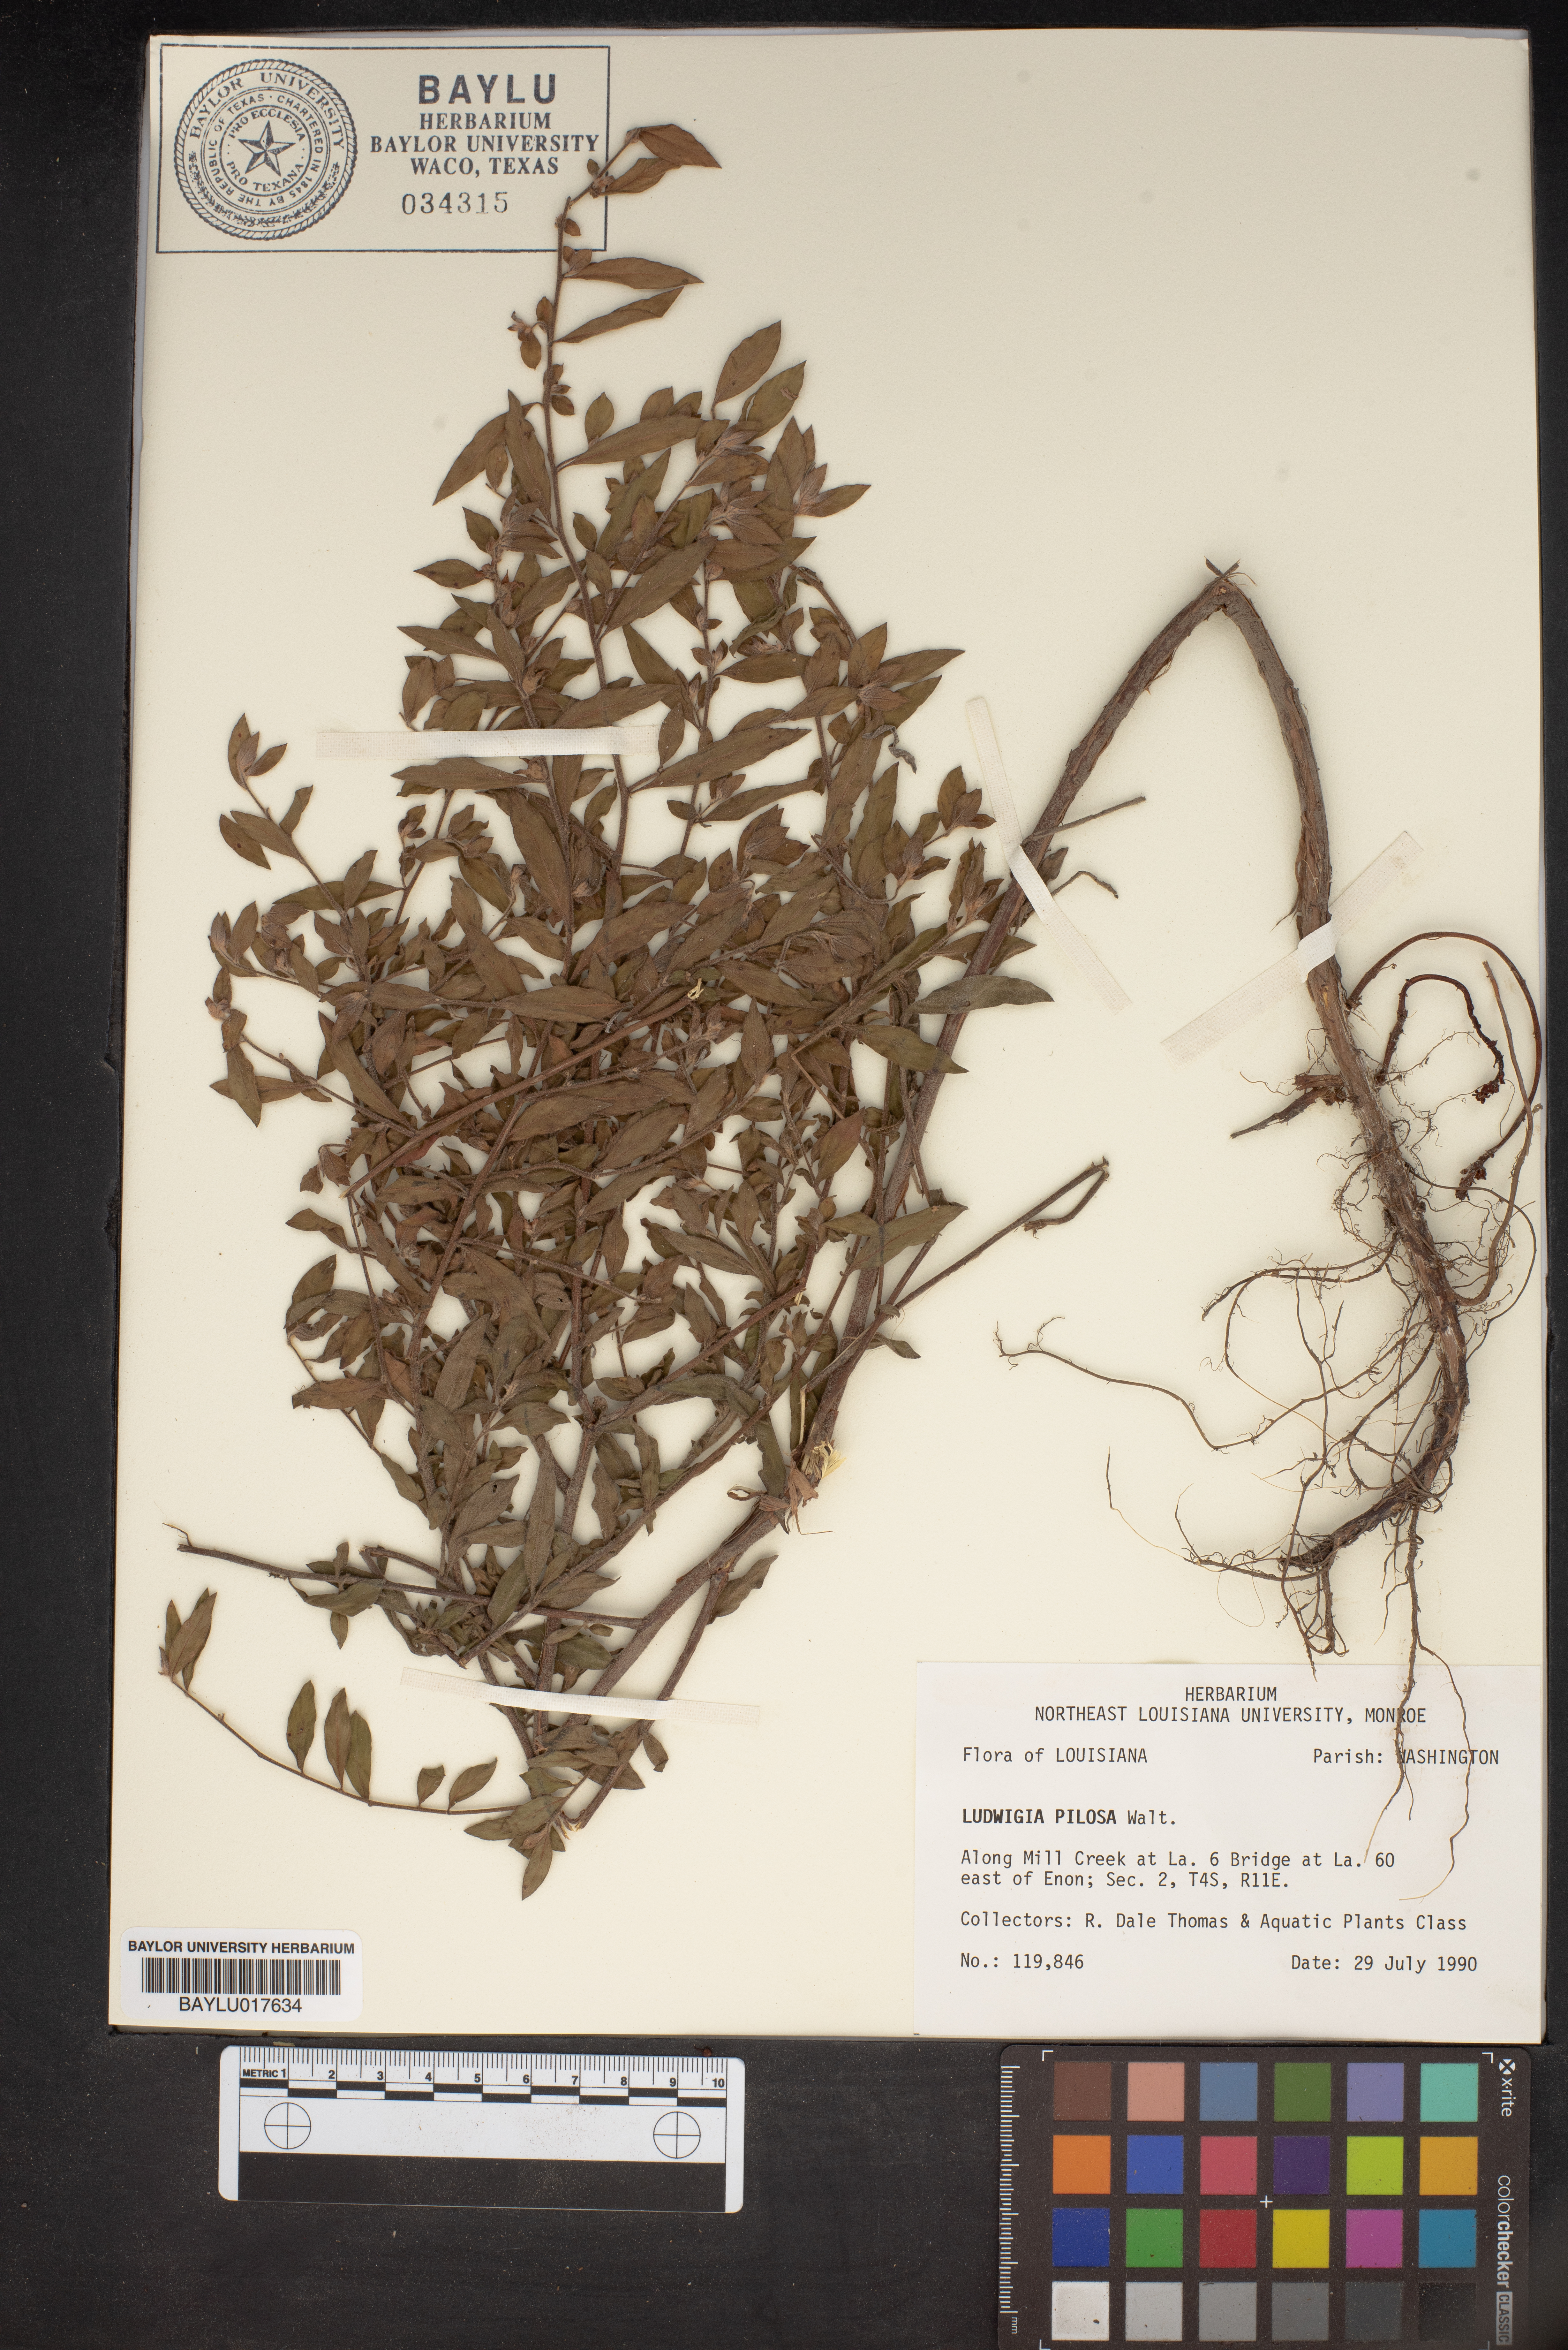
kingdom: Plantae
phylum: Tracheophyta
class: Magnoliopsida
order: Myrtales
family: Onagraceae
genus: Ludwigia
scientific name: Ludwigia pilosa
